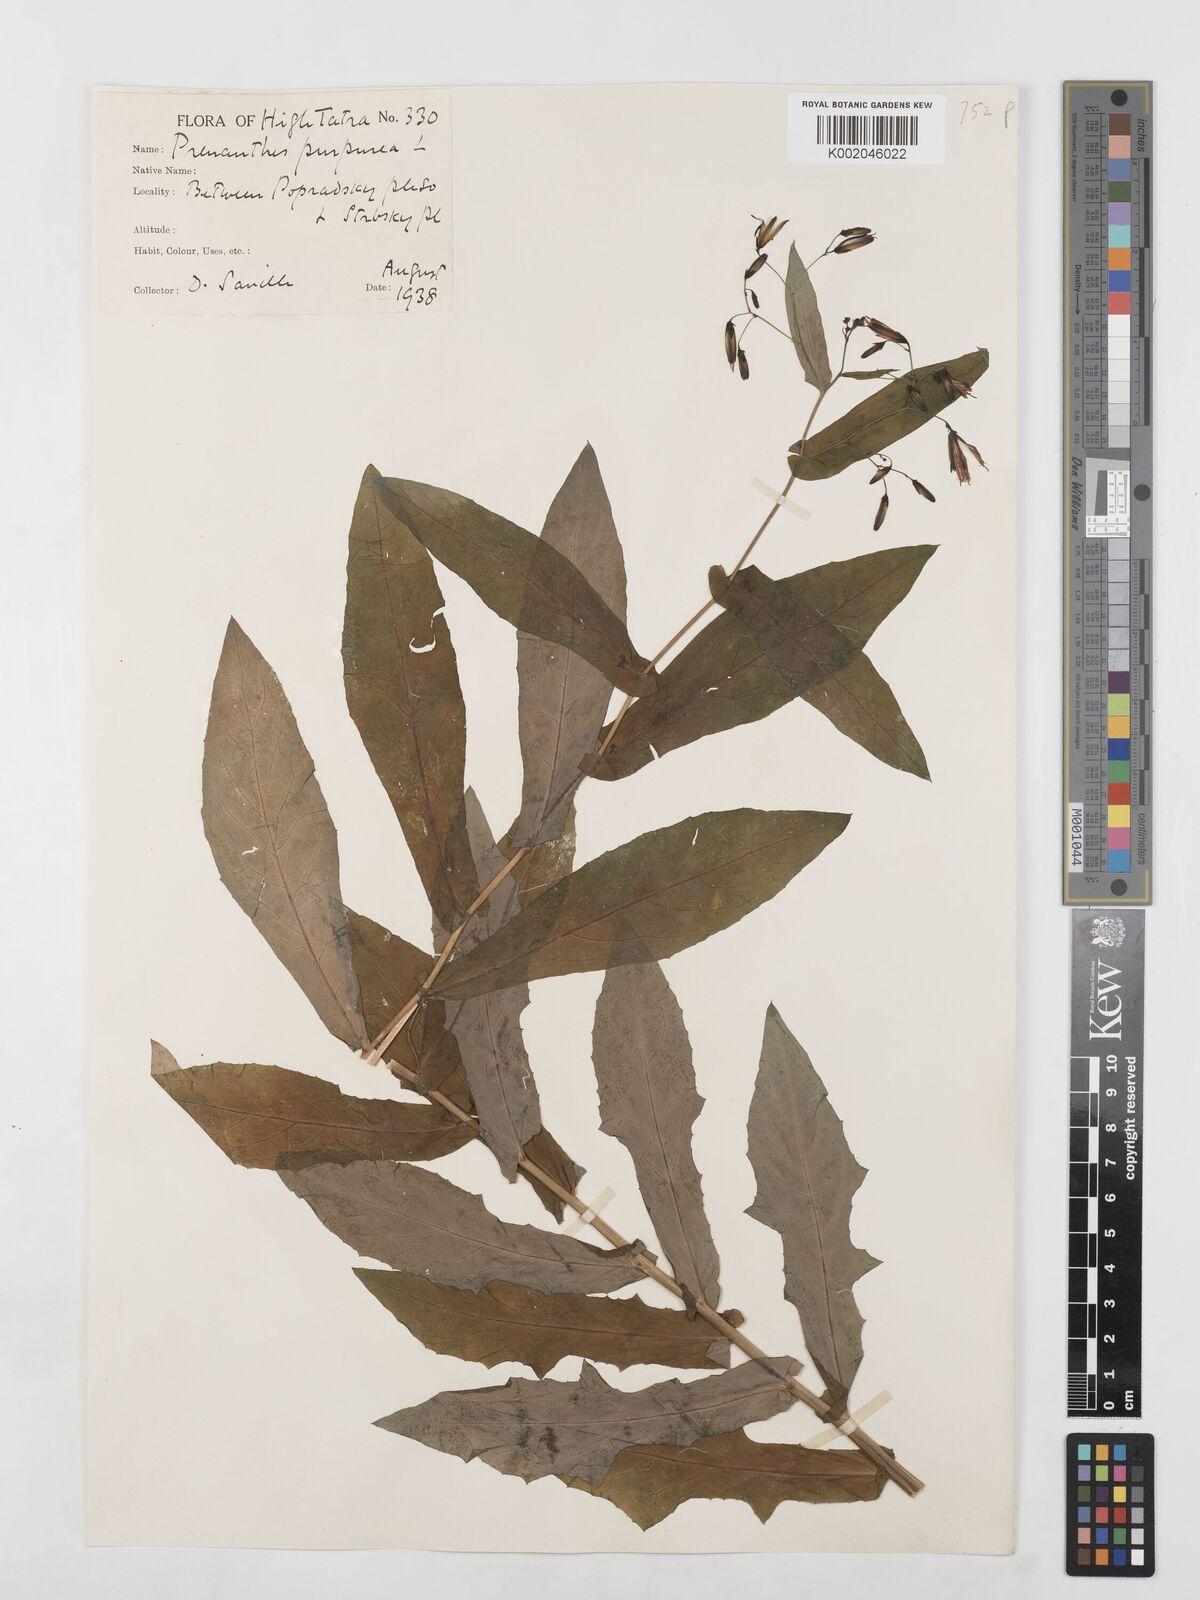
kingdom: Plantae
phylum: Tracheophyta
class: Magnoliopsida
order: Asterales
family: Asteraceae
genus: Prenanthes
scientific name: Prenanthes purpurea
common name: Purple lettuce
